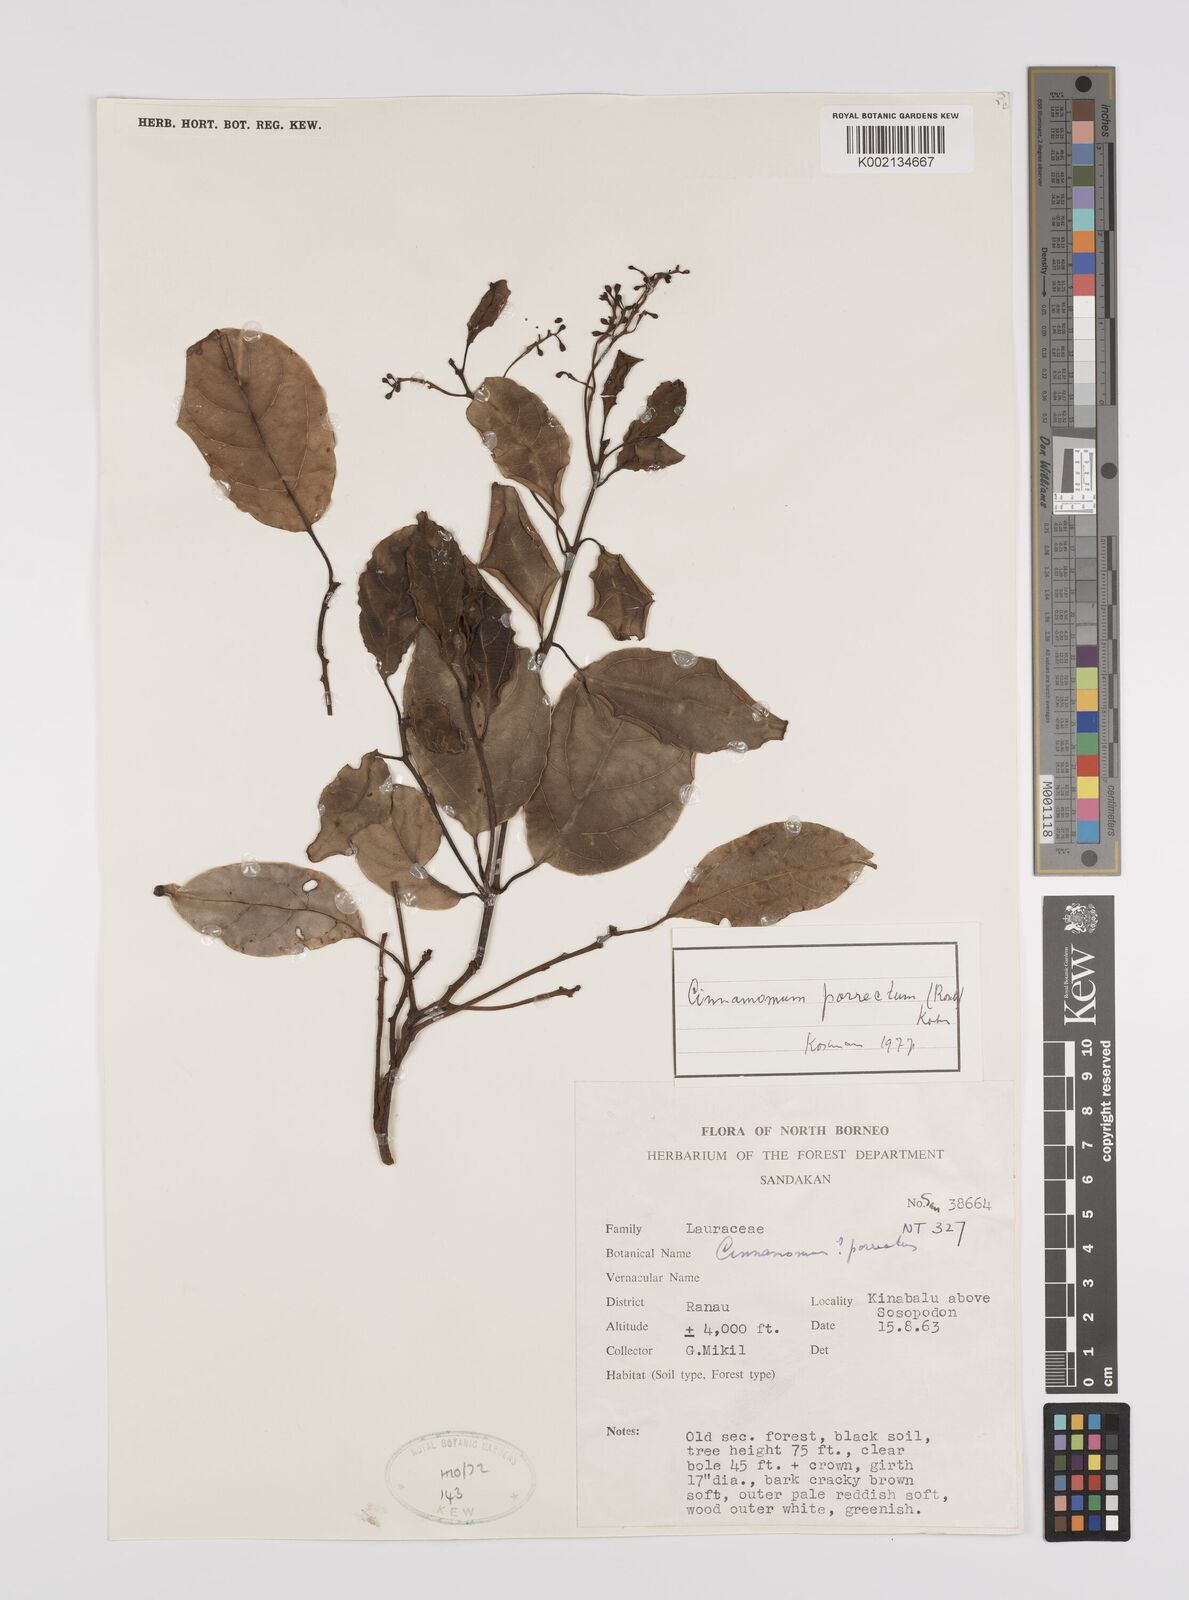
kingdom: Plantae
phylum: Tracheophyta
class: Magnoliopsida
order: Laurales
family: Lauraceae
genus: Cinnamomum
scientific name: Cinnamomum parthenoxylon
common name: Martaban camphor wood
